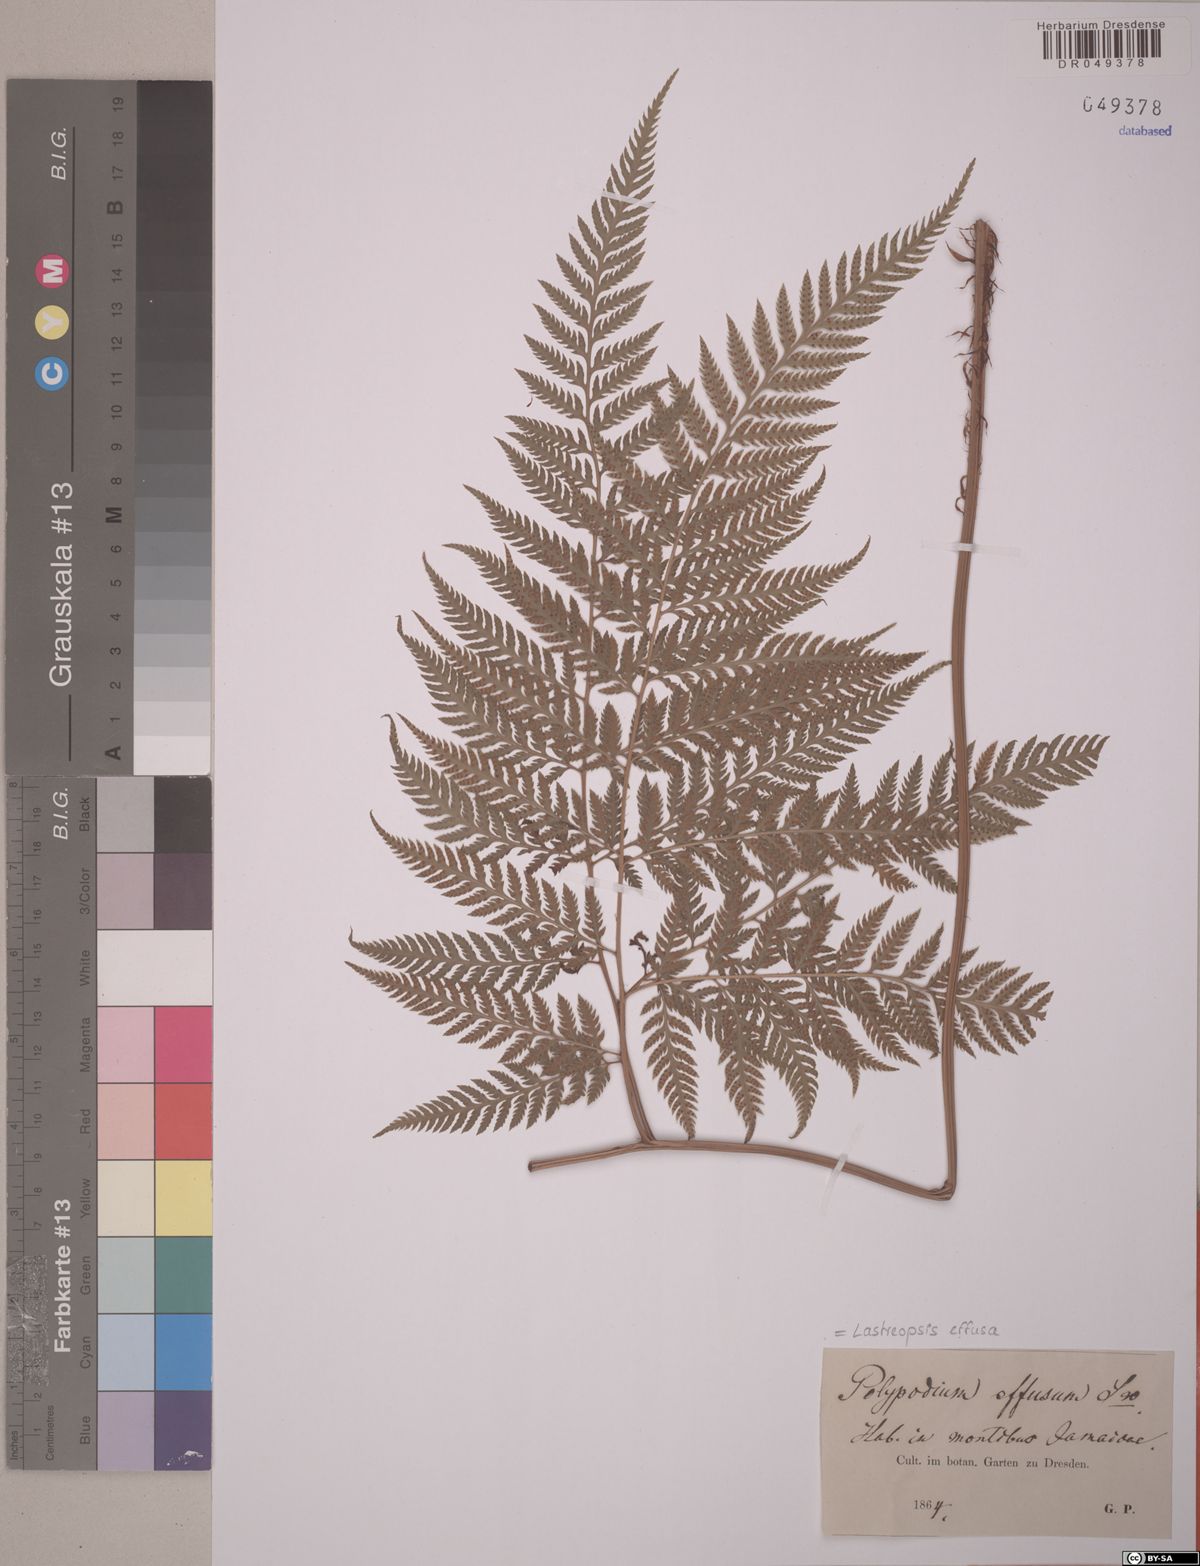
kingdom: Plantae
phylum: Tracheophyta
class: Polypodiopsida
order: Polypodiales
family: Dryopteridaceae
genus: Parapolystichum
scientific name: Parapolystichum effusum
